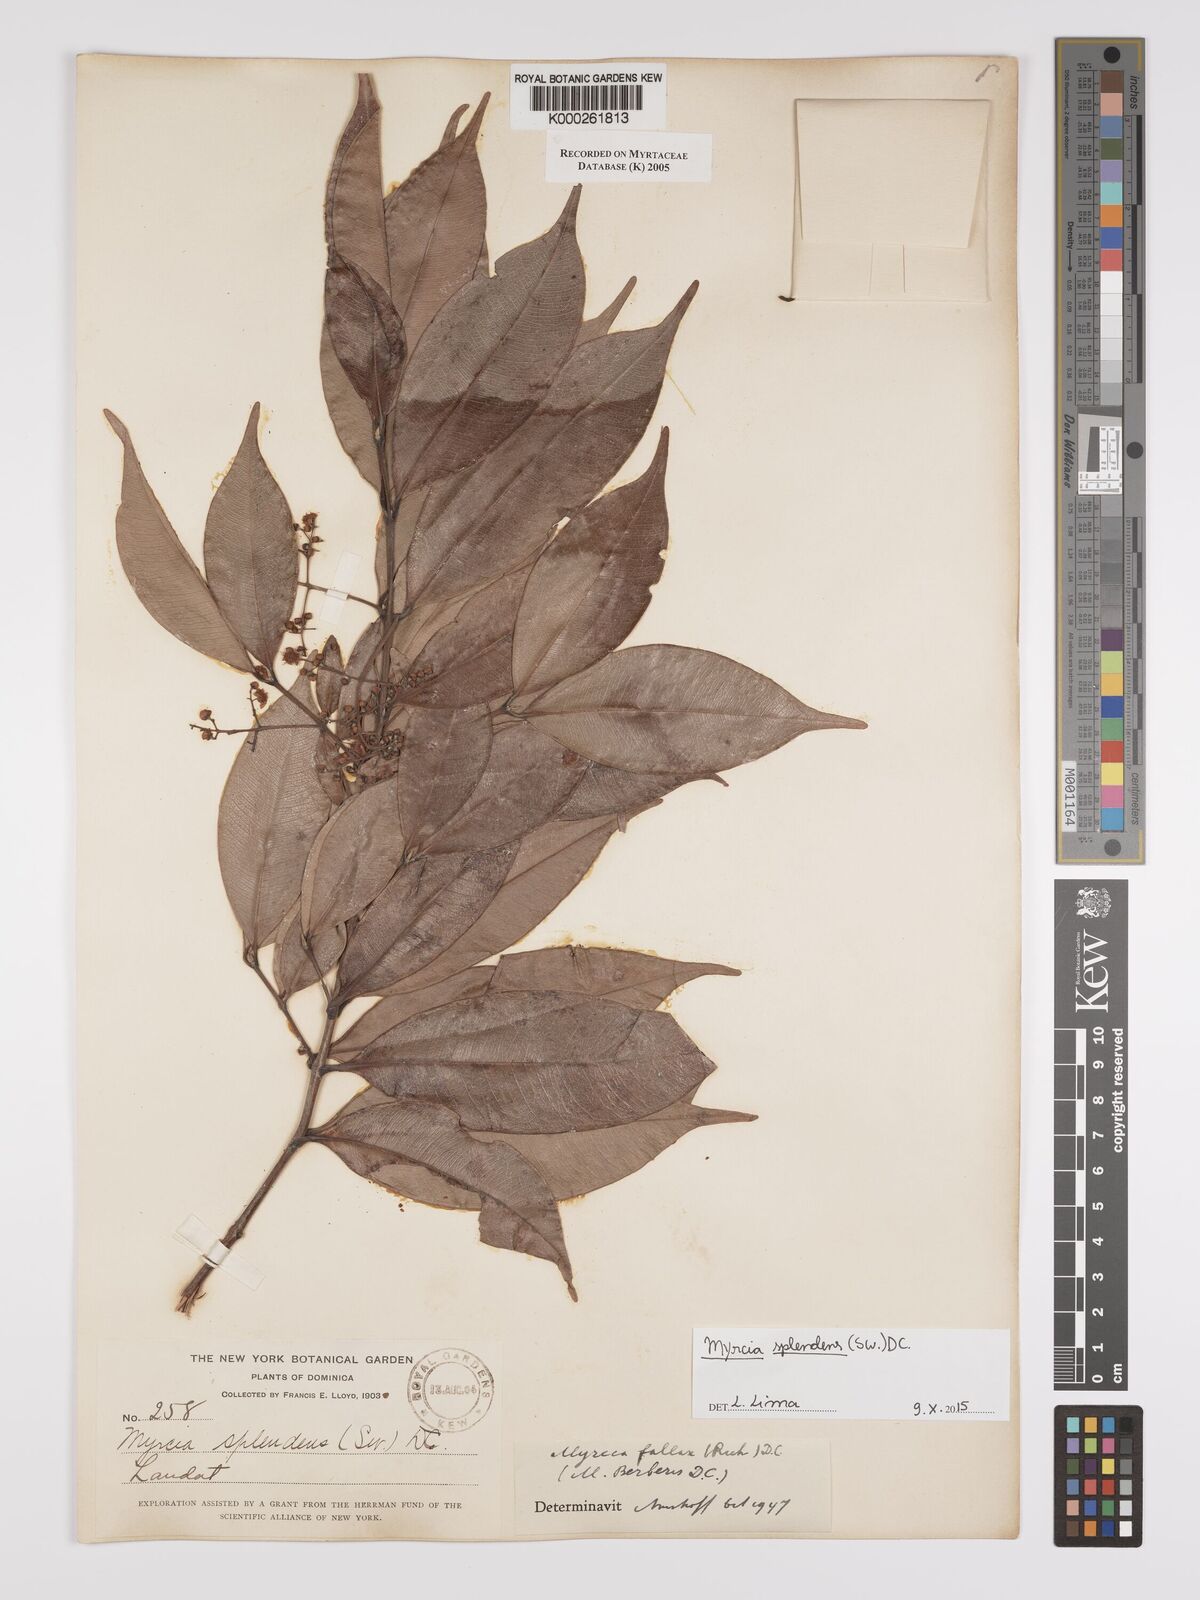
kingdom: Plantae
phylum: Tracheophyta
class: Magnoliopsida
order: Myrtales
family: Myrtaceae
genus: Myrcia
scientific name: Myrcia splendens
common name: Surinam cherry
